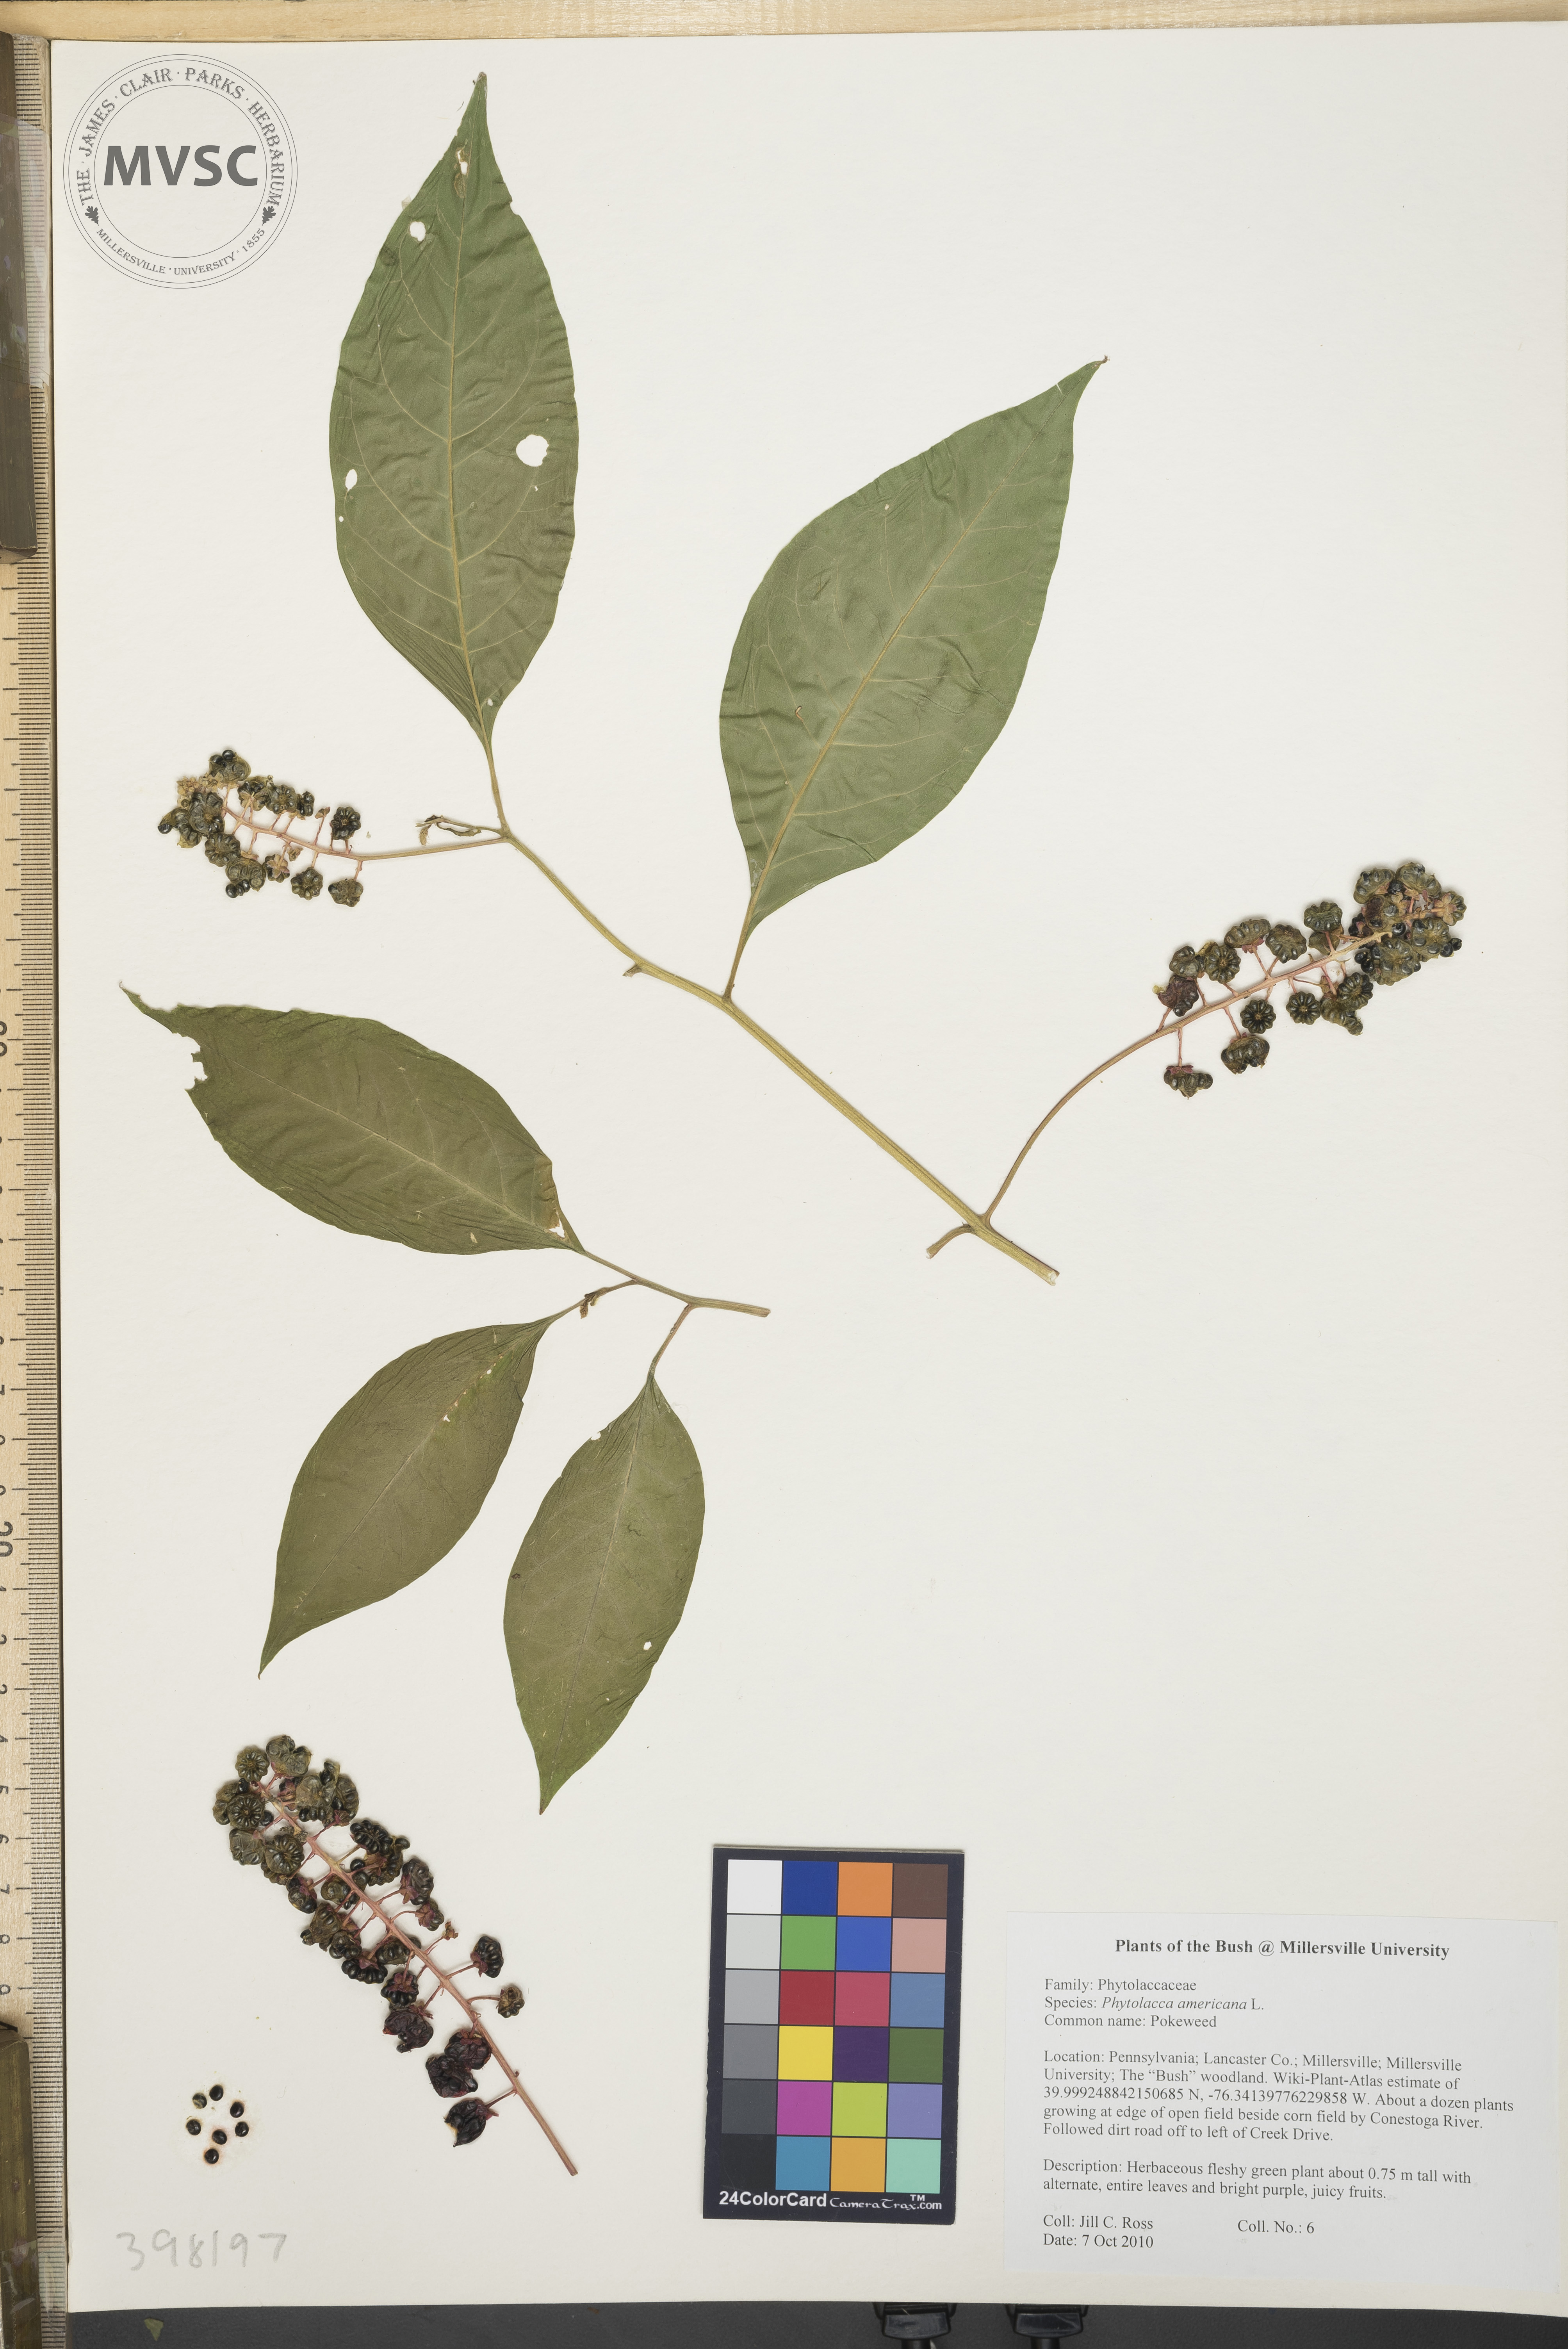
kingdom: Plantae
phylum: Tracheophyta
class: Magnoliopsida
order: Caryophyllales
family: Phytolaccaceae
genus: Phytolacca
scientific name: Phytolacca americana
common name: Pokeweed
